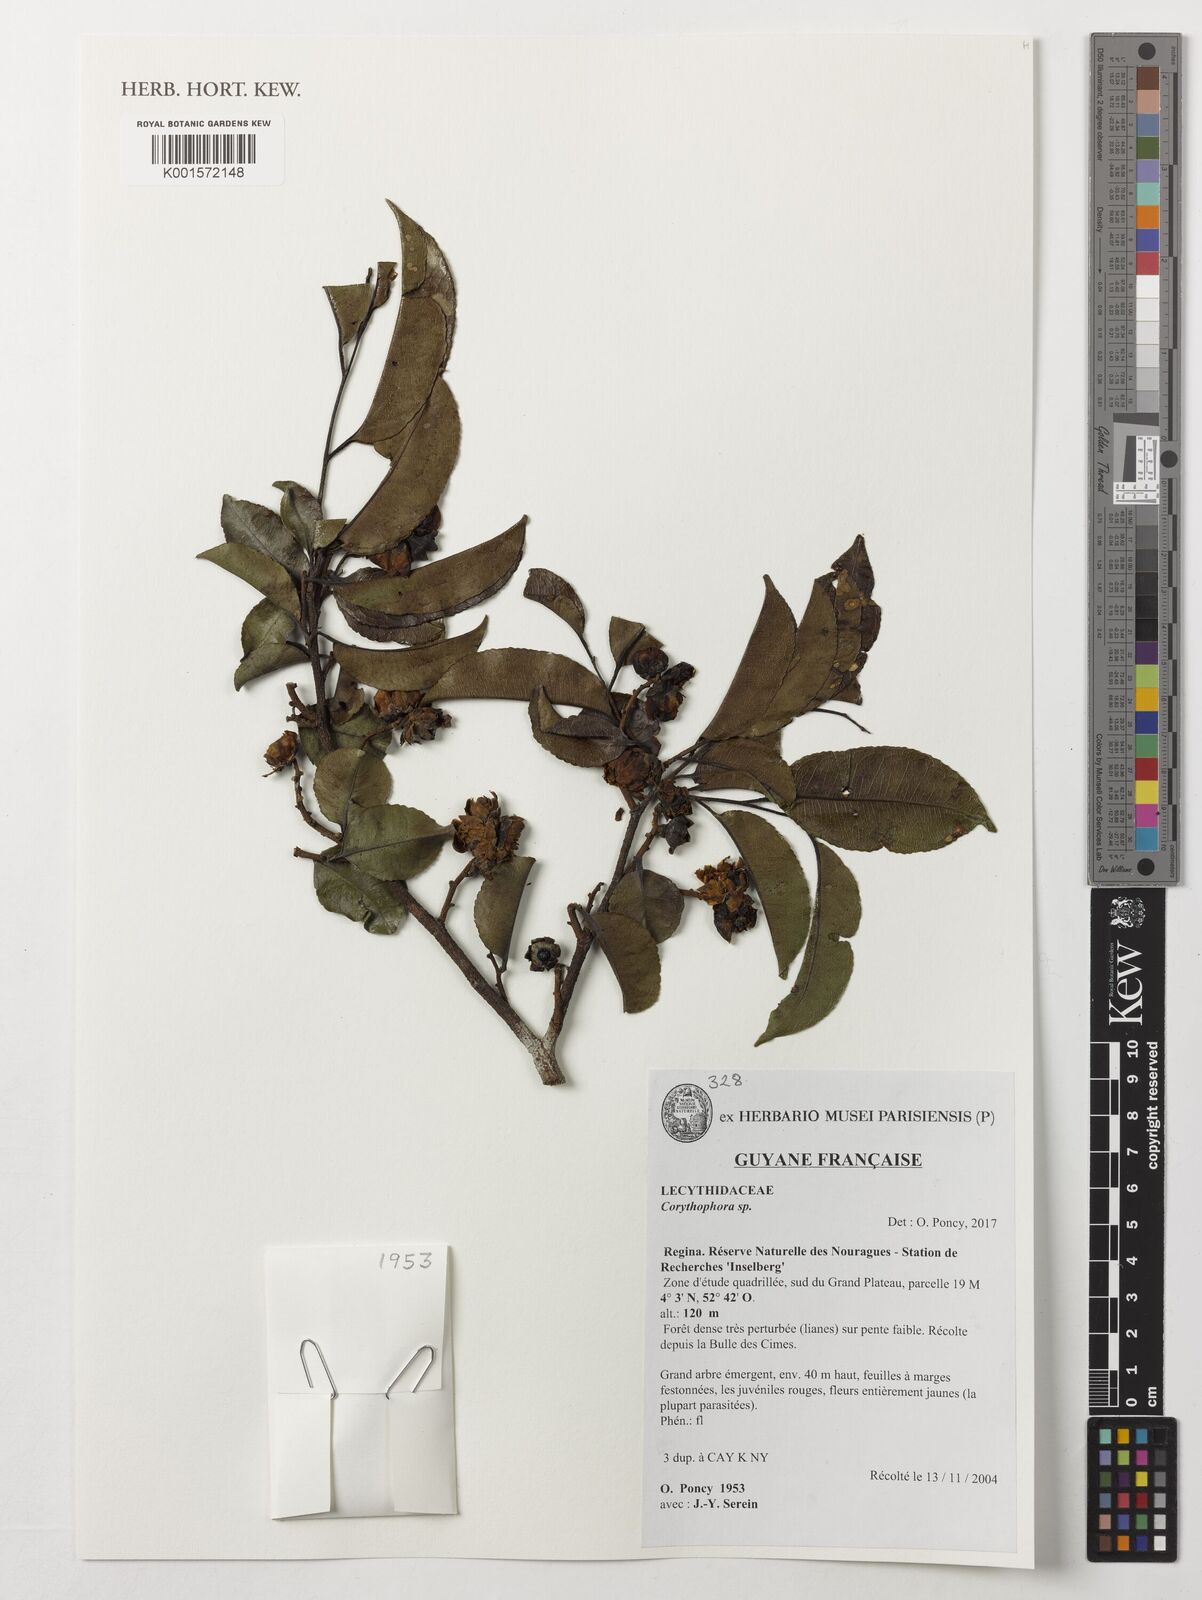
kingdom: Plantae
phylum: Tracheophyta
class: Magnoliopsida
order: Ericales
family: Lecythidaceae
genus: Corythophora
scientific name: Corythophora
